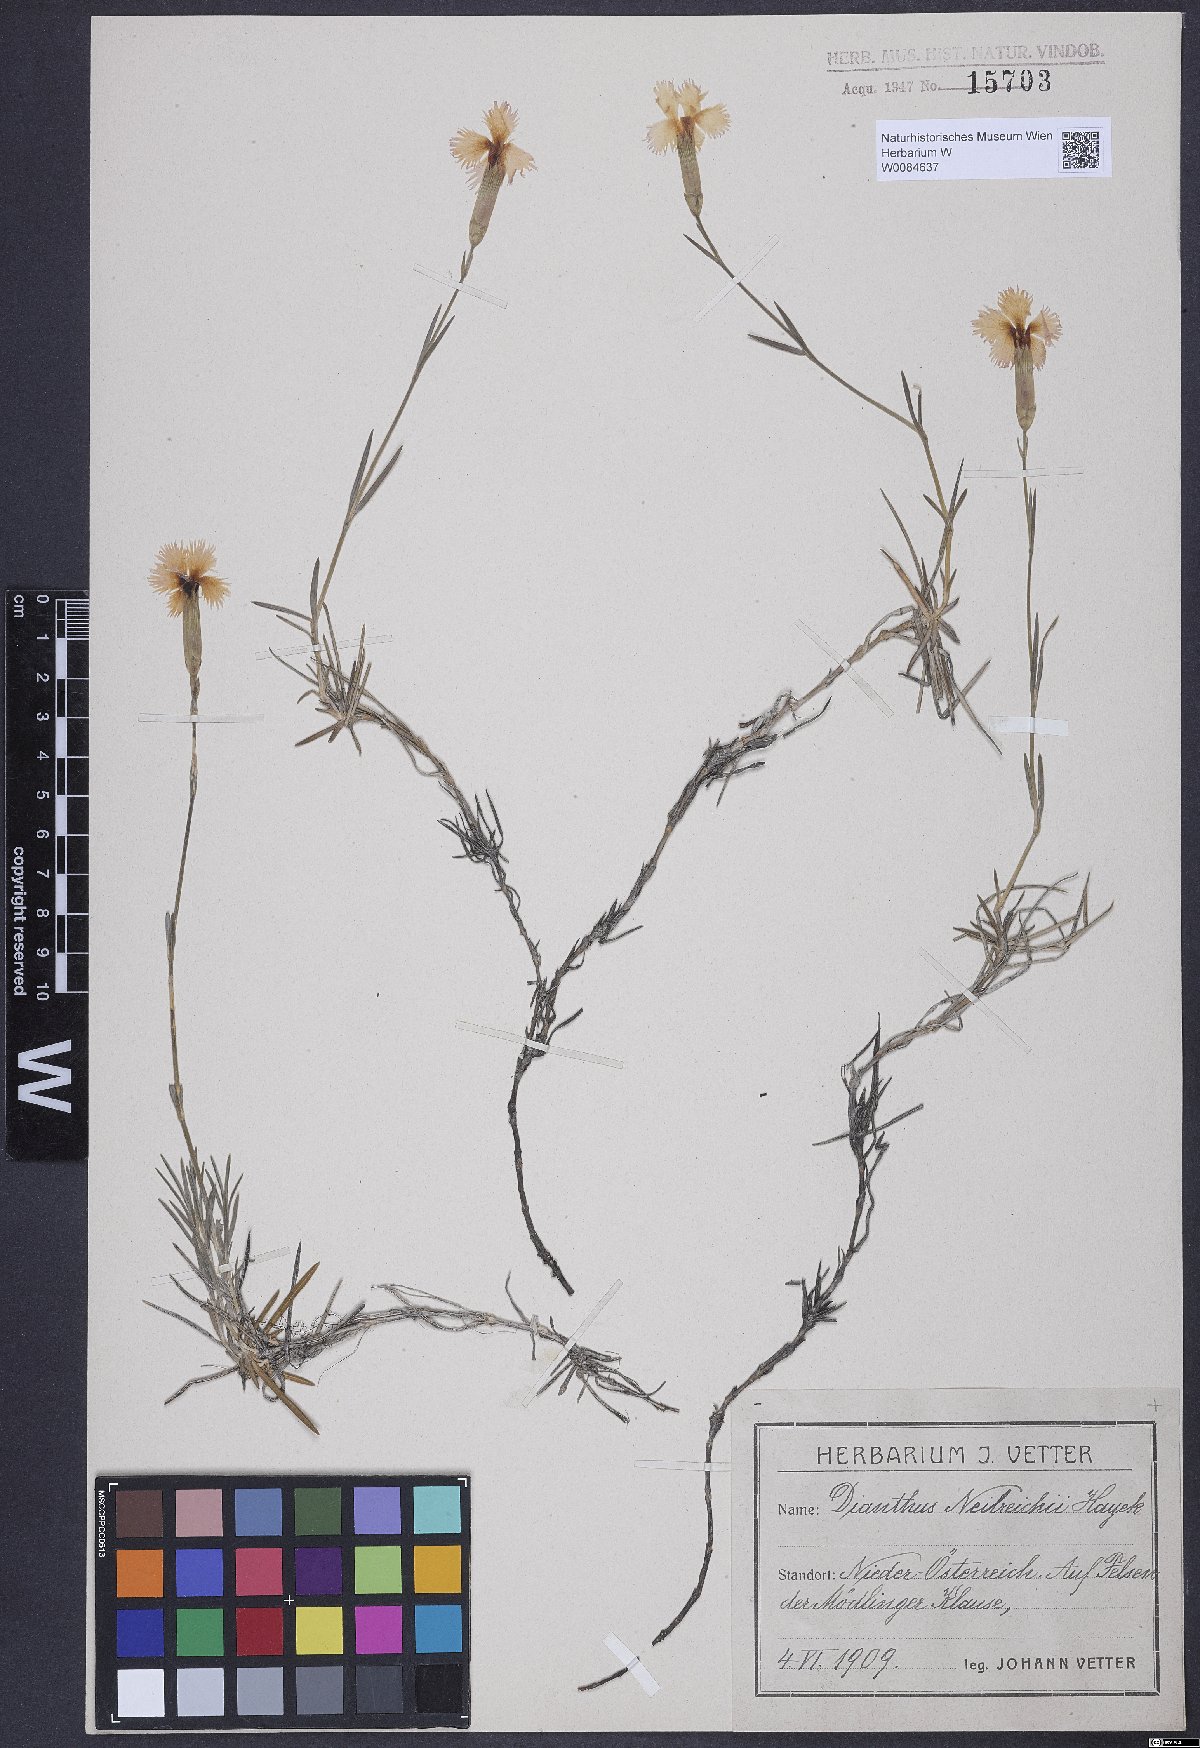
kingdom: Plantae
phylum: Tracheophyta
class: Magnoliopsida
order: Caryophyllales
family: Caryophyllaceae
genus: Dianthus
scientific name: Dianthus plumarius
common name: Pink
